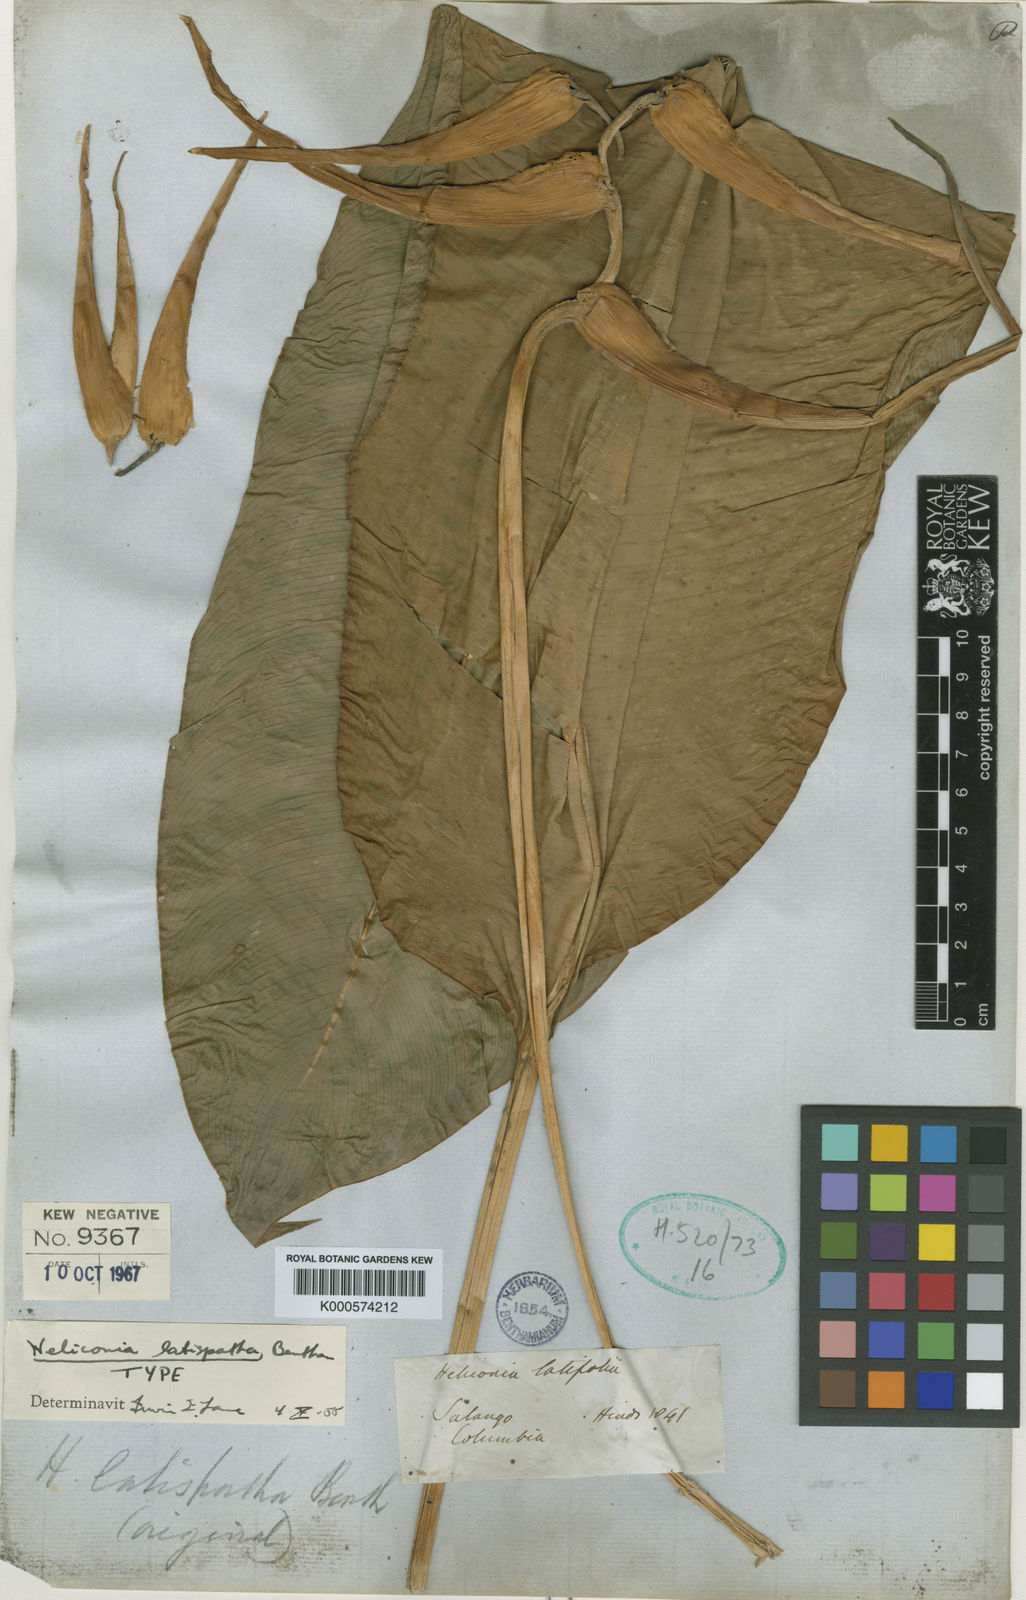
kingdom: Plantae
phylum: Tracheophyta
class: Liliopsida
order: Zingiberales
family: Heliconiaceae
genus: Heliconia
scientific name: Heliconia latispatha
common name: Expanded lobsterclaw
